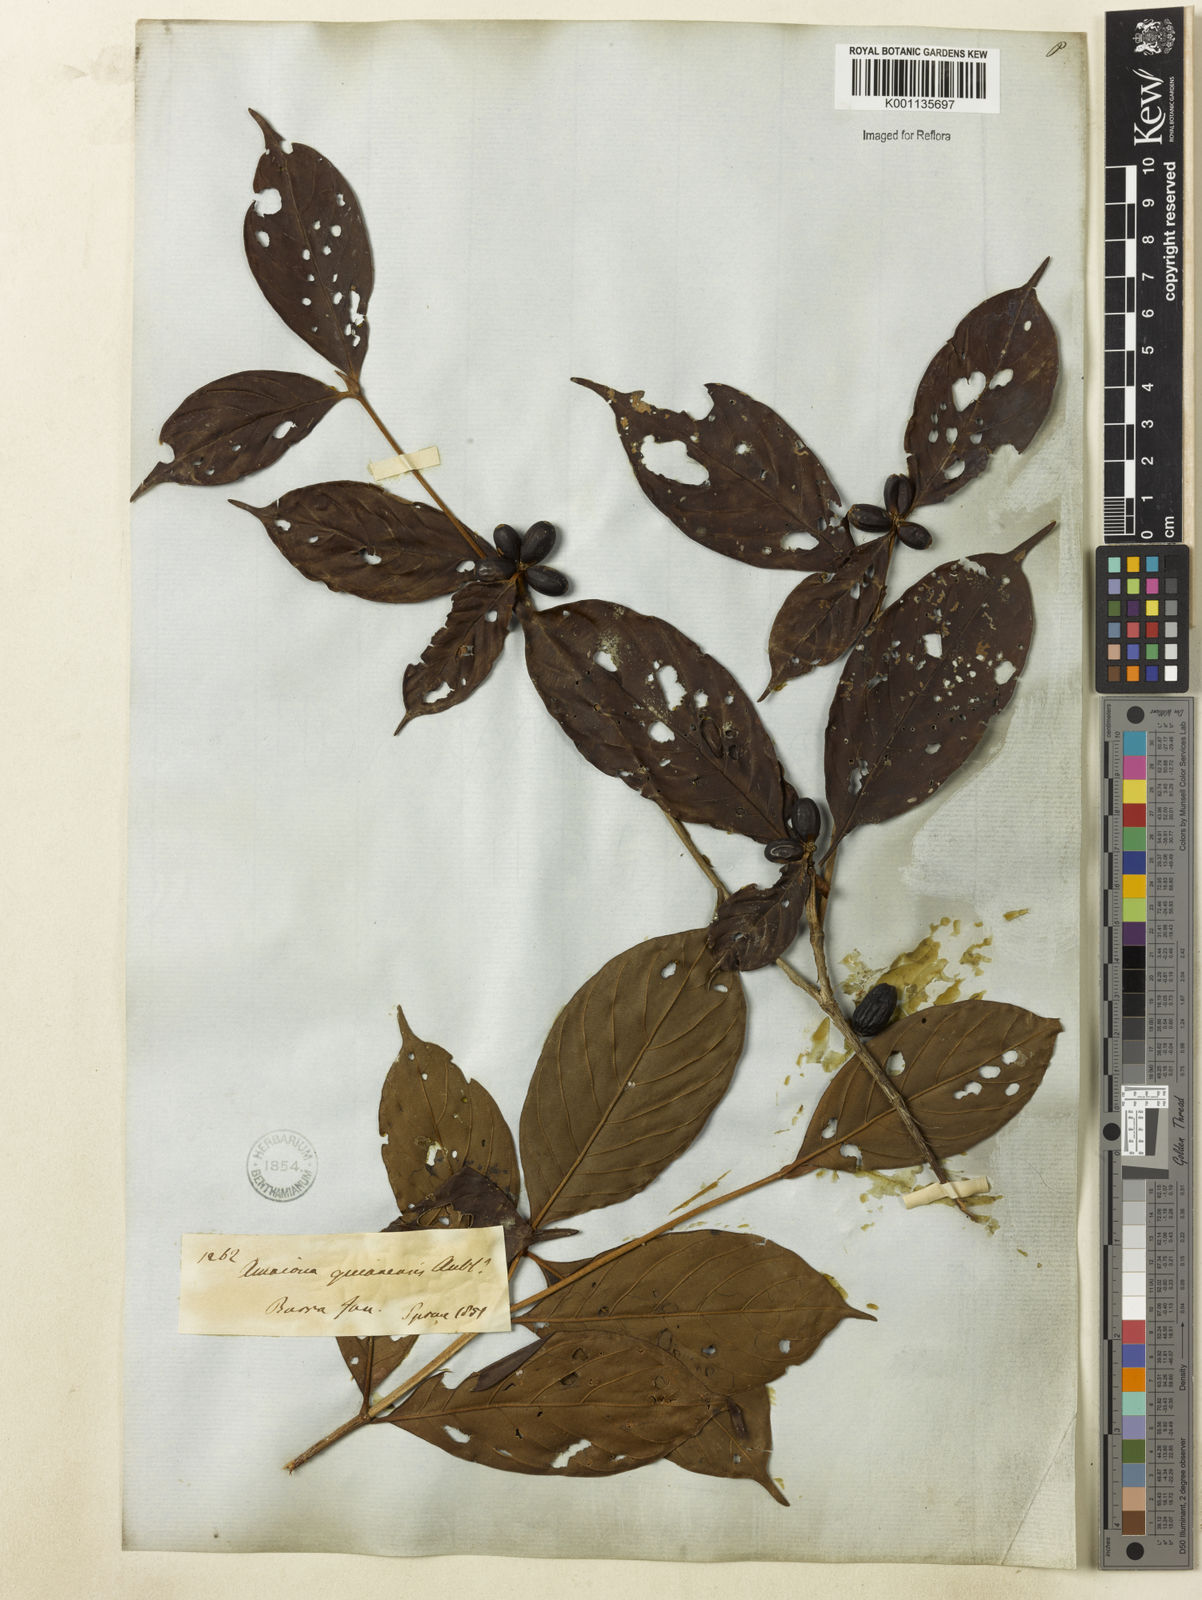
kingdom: Plantae
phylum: Tracheophyta
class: Magnoliopsida
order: Gentianales
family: Rubiaceae
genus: Amaioua
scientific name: Amaioua guianensis
